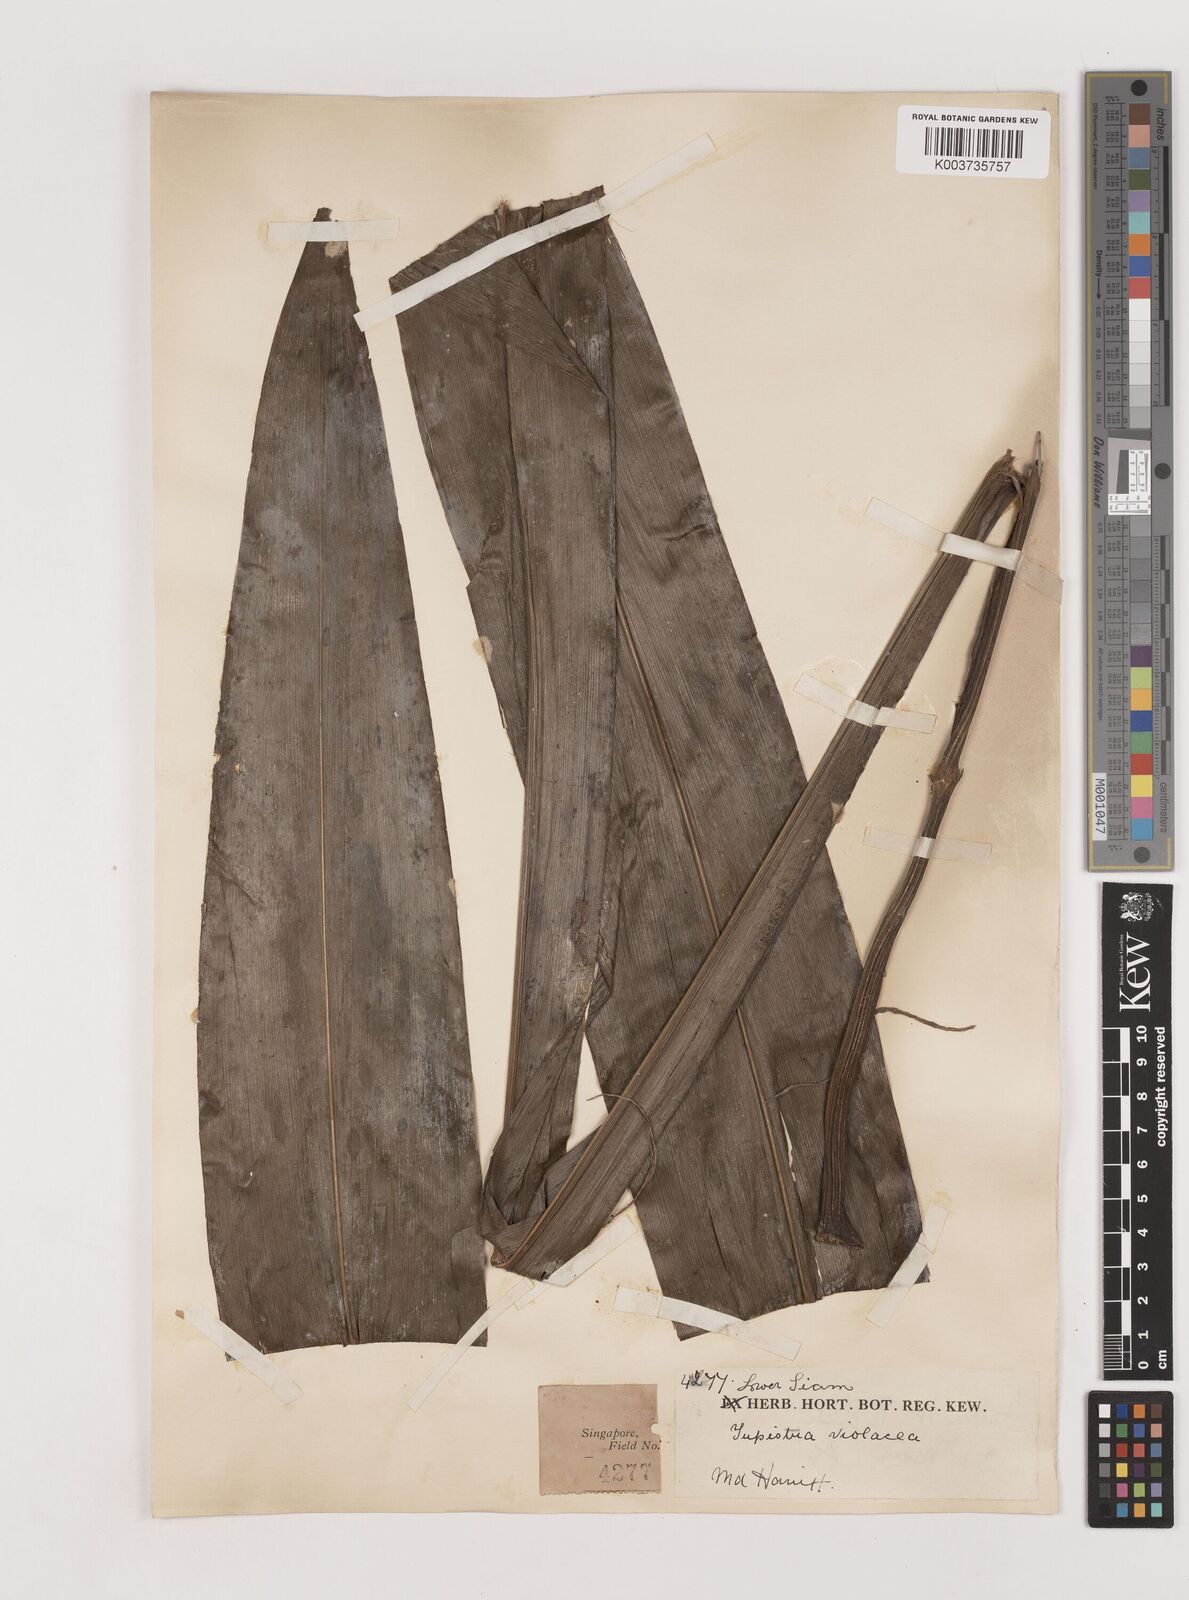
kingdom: Plantae
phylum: Tracheophyta
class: Liliopsida
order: Asparagales
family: Asparagaceae
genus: Tupistra
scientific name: Tupistra violacea
